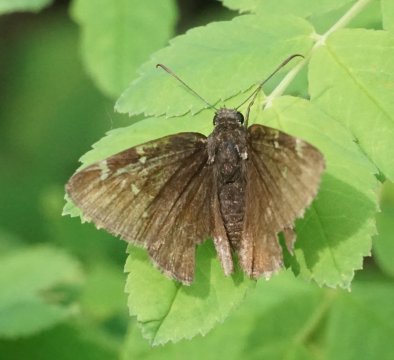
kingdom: Animalia
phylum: Arthropoda
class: Insecta
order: Lepidoptera
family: Hesperiidae
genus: Autochton
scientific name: Autochton
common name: Northern Cloudywing
